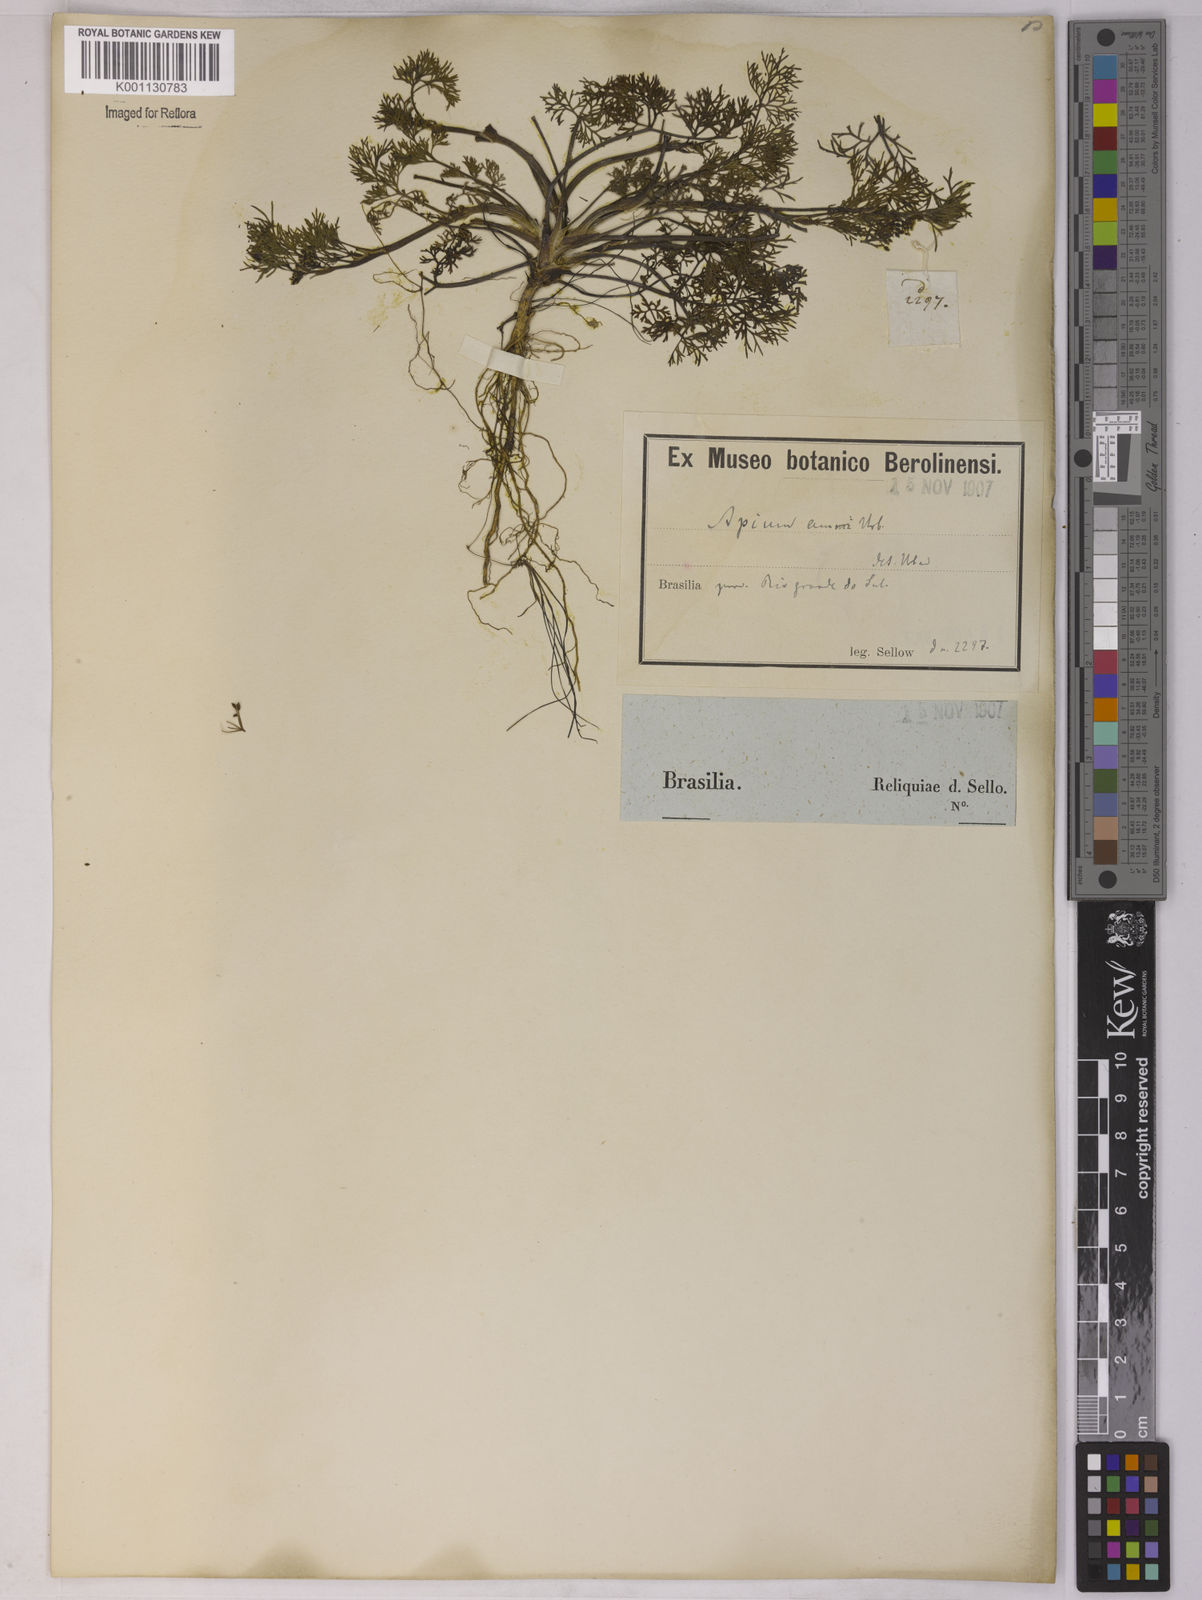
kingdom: Plantae
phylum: Tracheophyta
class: Magnoliopsida
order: Apiales
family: Apiaceae
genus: Apium
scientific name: Apium
